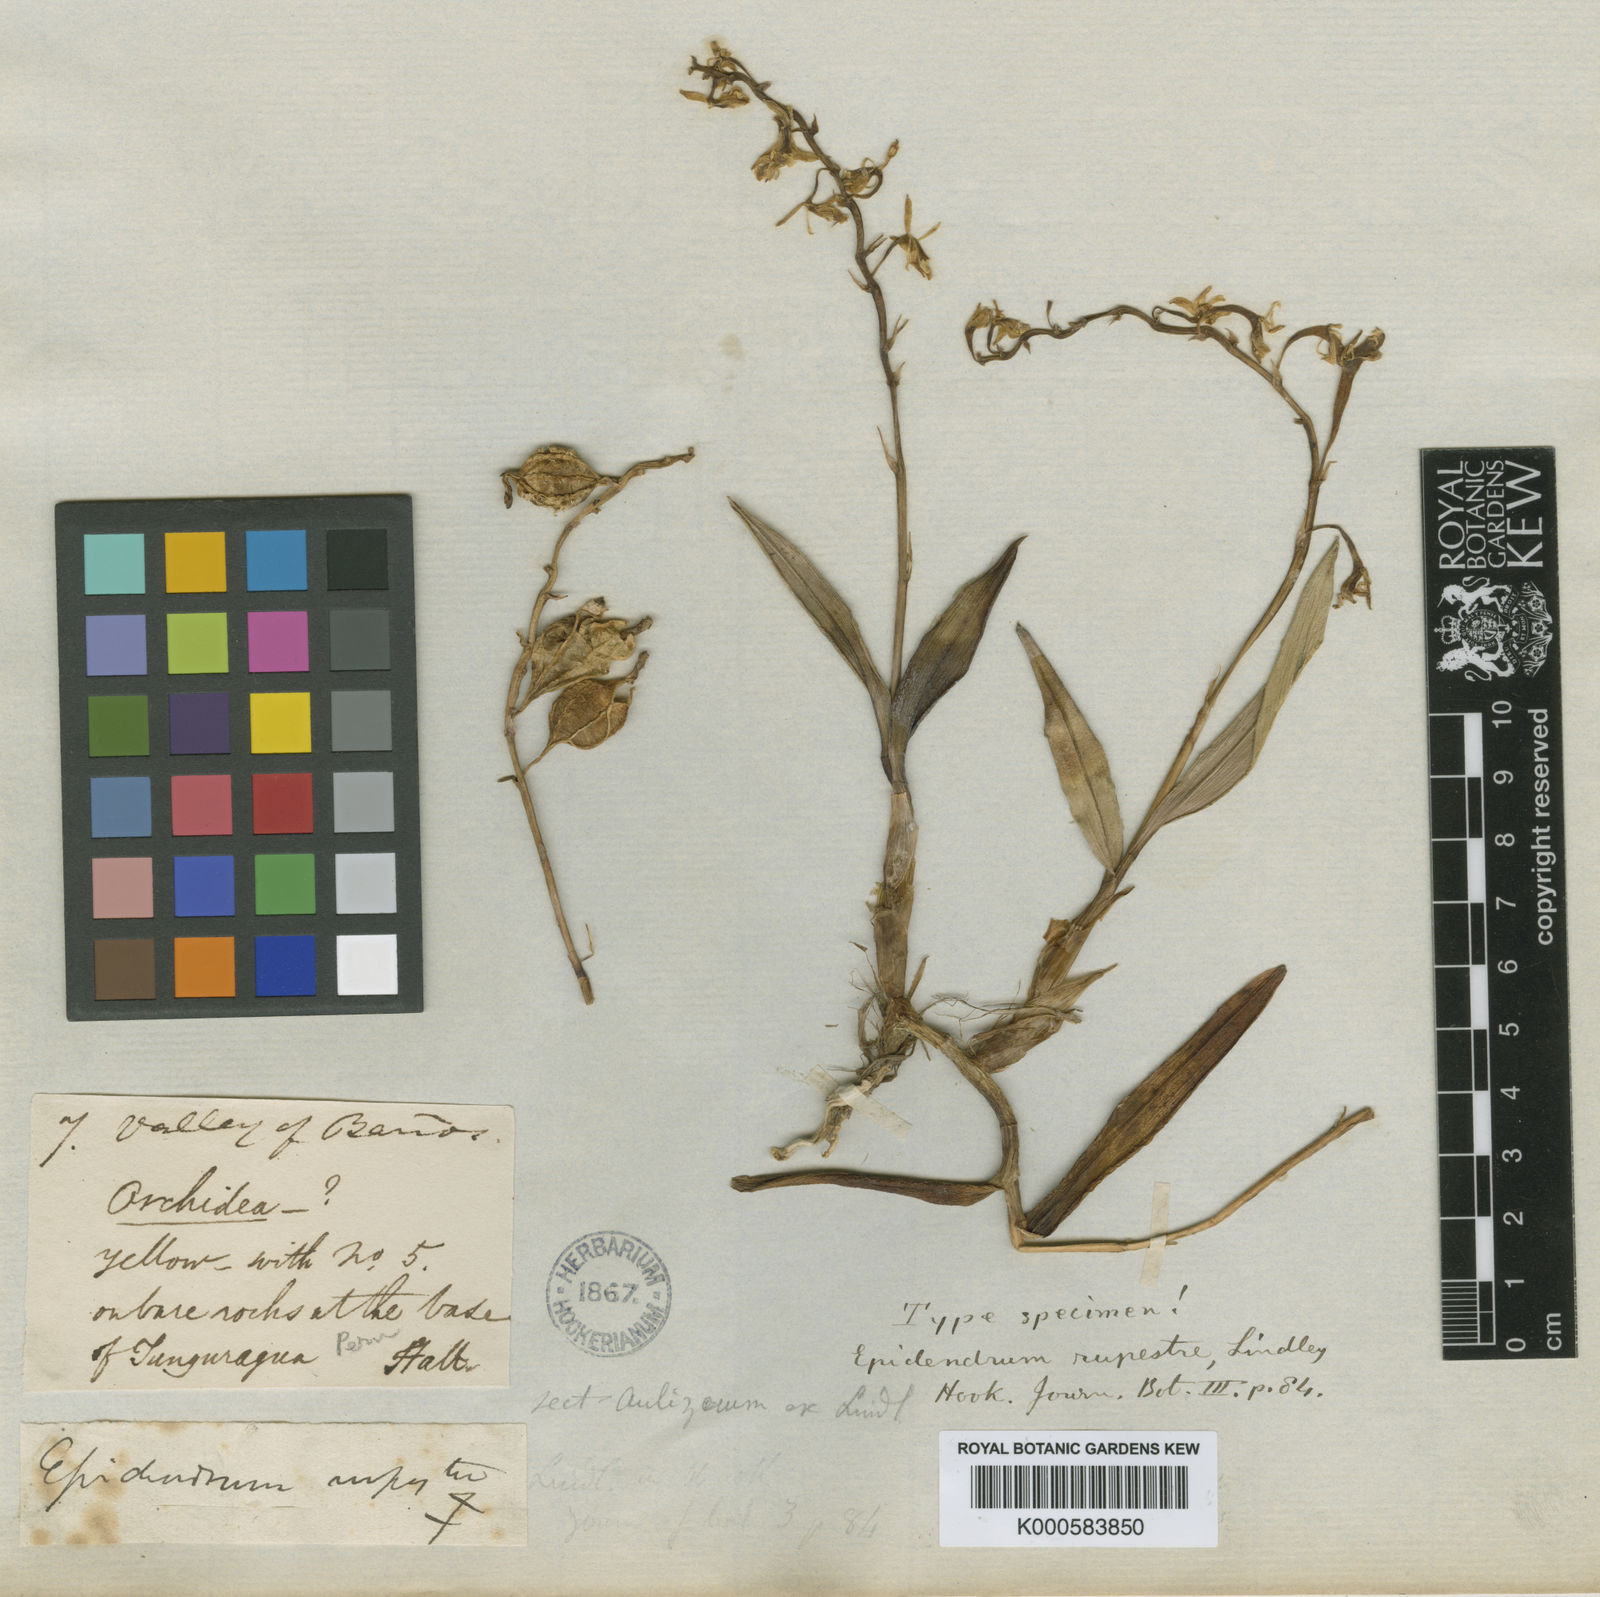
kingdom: Plantae
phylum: Tracheophyta
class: Liliopsida
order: Asparagales
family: Orchidaceae
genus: Epidendrum
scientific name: Epidendrum rupestre
